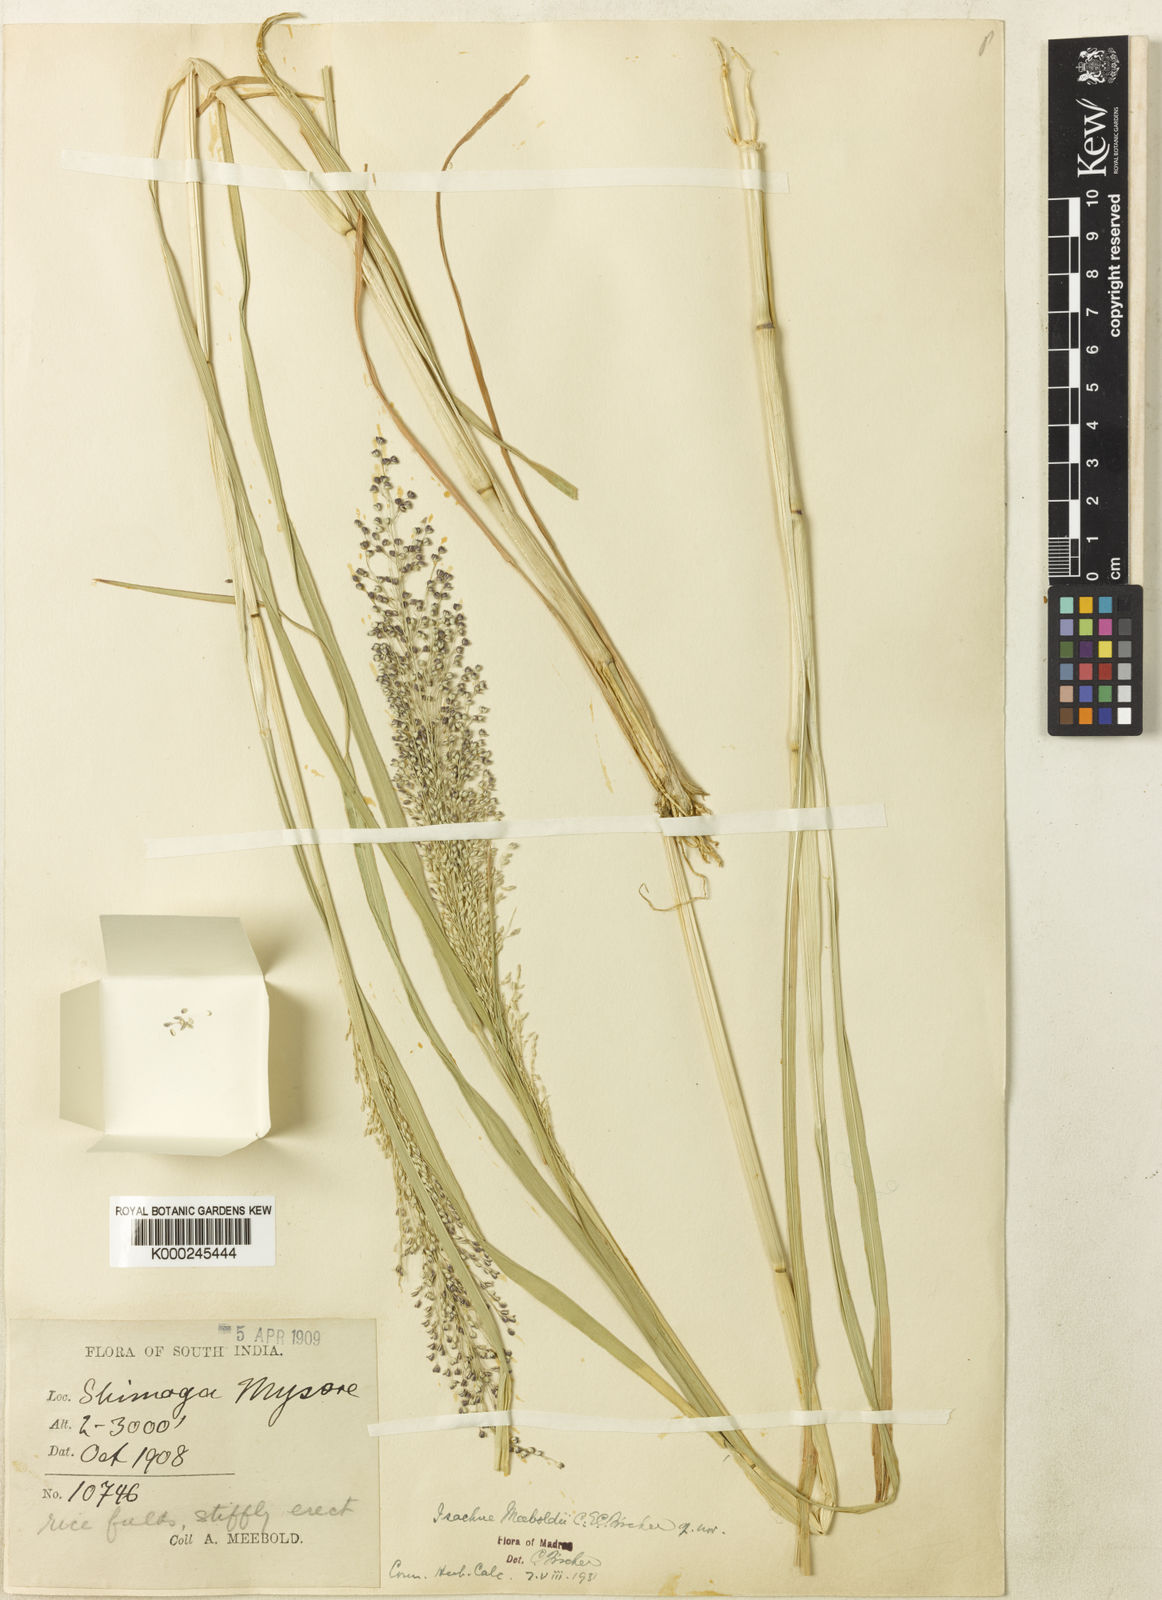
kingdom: Plantae
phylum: Tracheophyta
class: Liliopsida
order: Poales
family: Poaceae
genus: Isachne
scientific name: Isachne meeboldii
